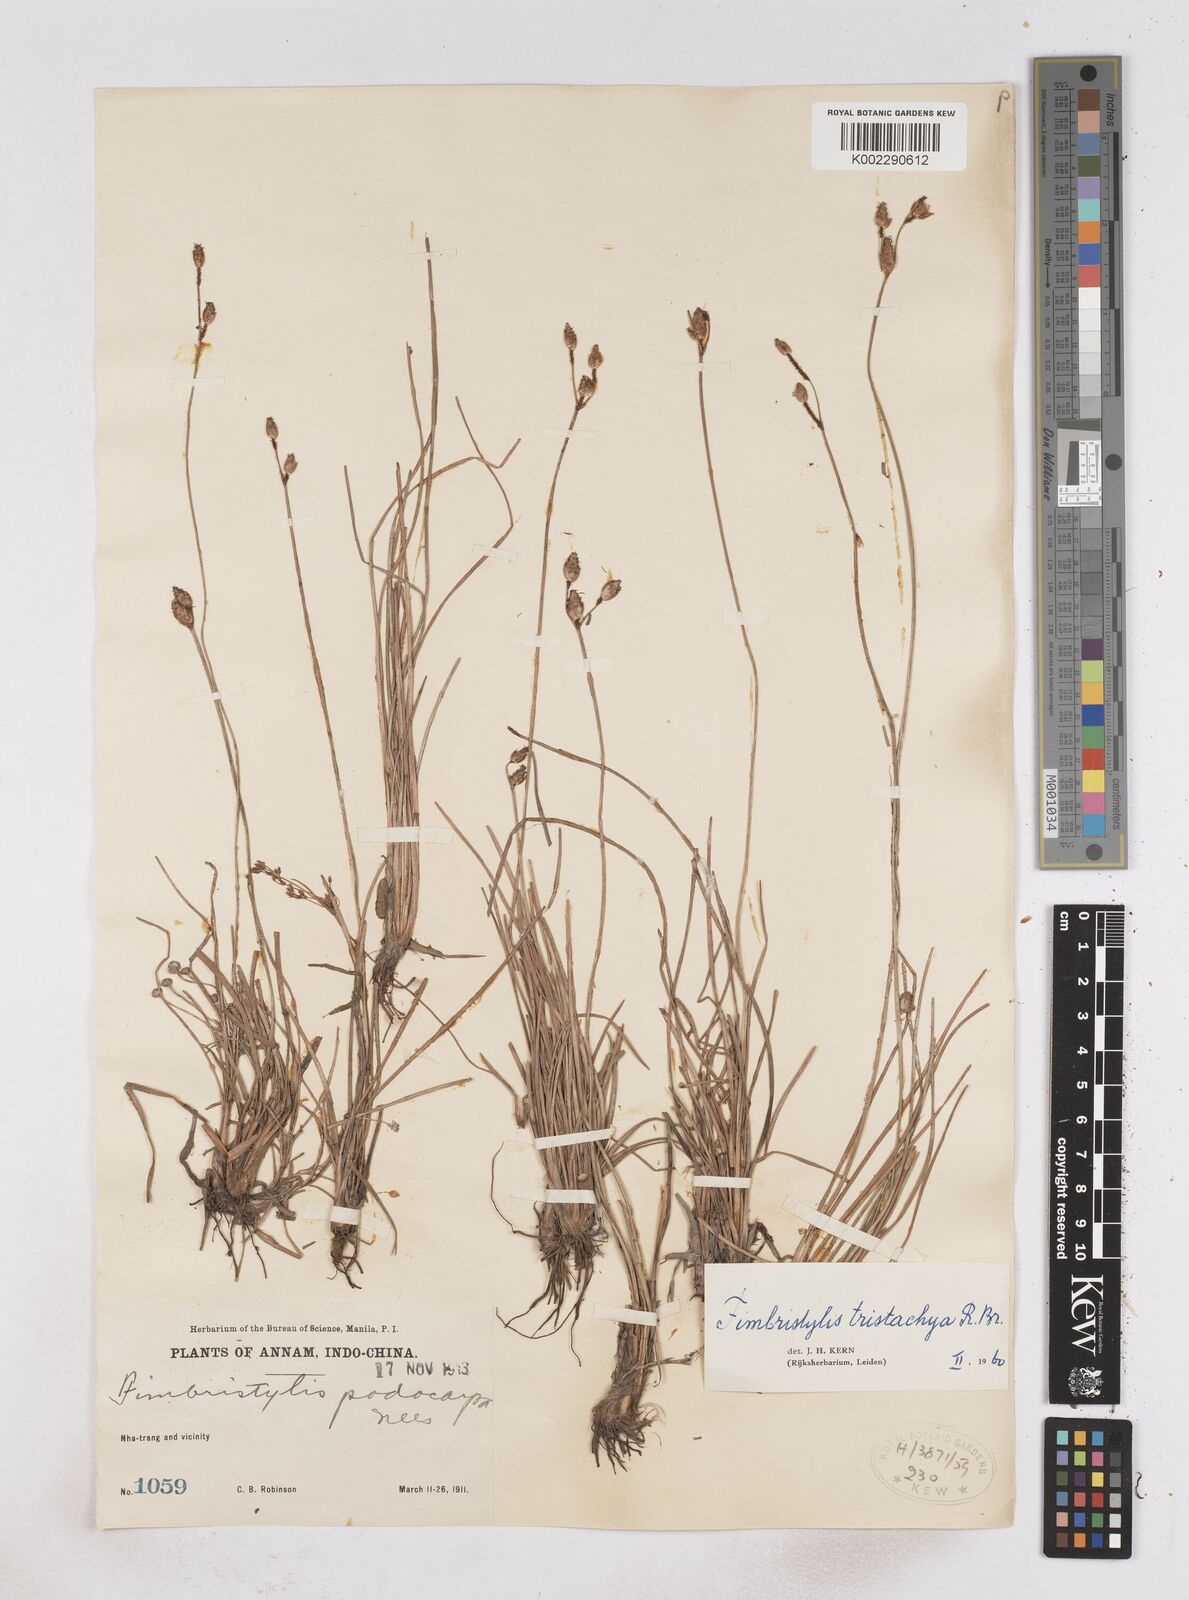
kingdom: Plantae
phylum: Tracheophyta
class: Liliopsida
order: Poales
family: Cyperaceae
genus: Fimbristylis
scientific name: Fimbristylis tristachya
